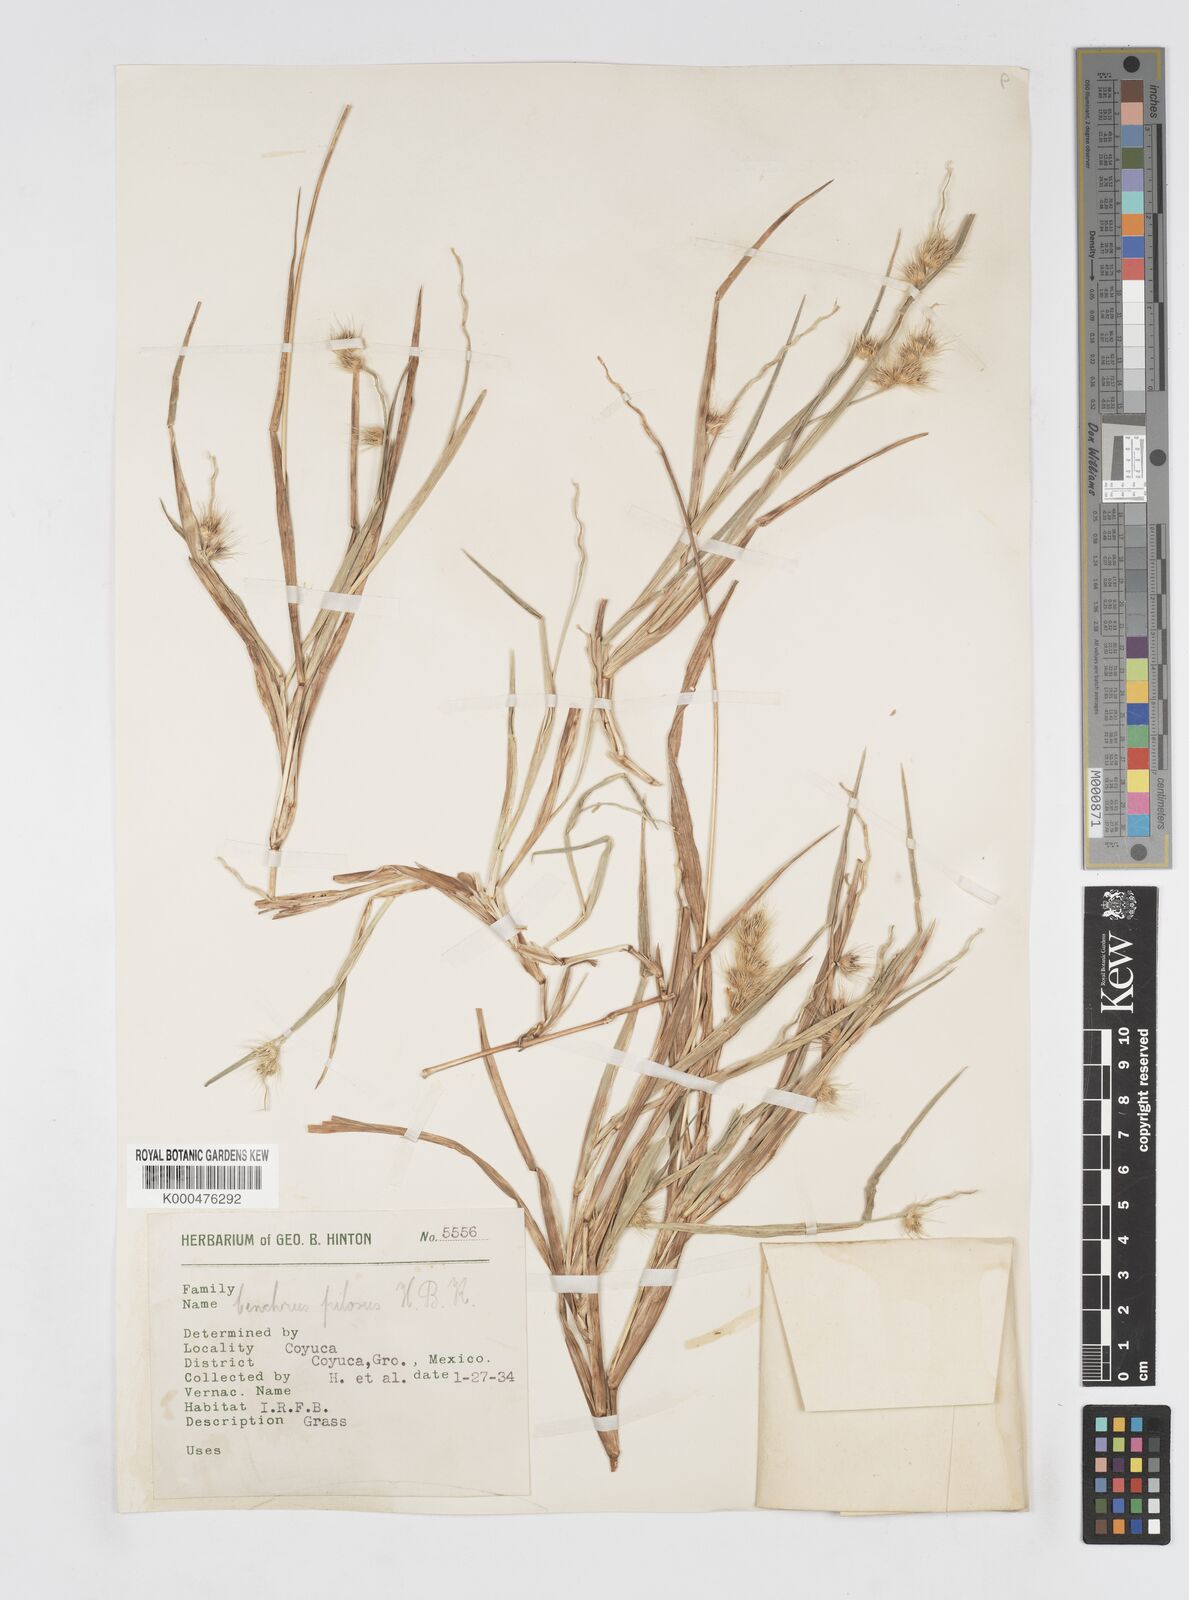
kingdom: Plantae
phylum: Tracheophyta
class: Liliopsida
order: Poales
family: Poaceae
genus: Cenchrus
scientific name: Cenchrus pilosus
